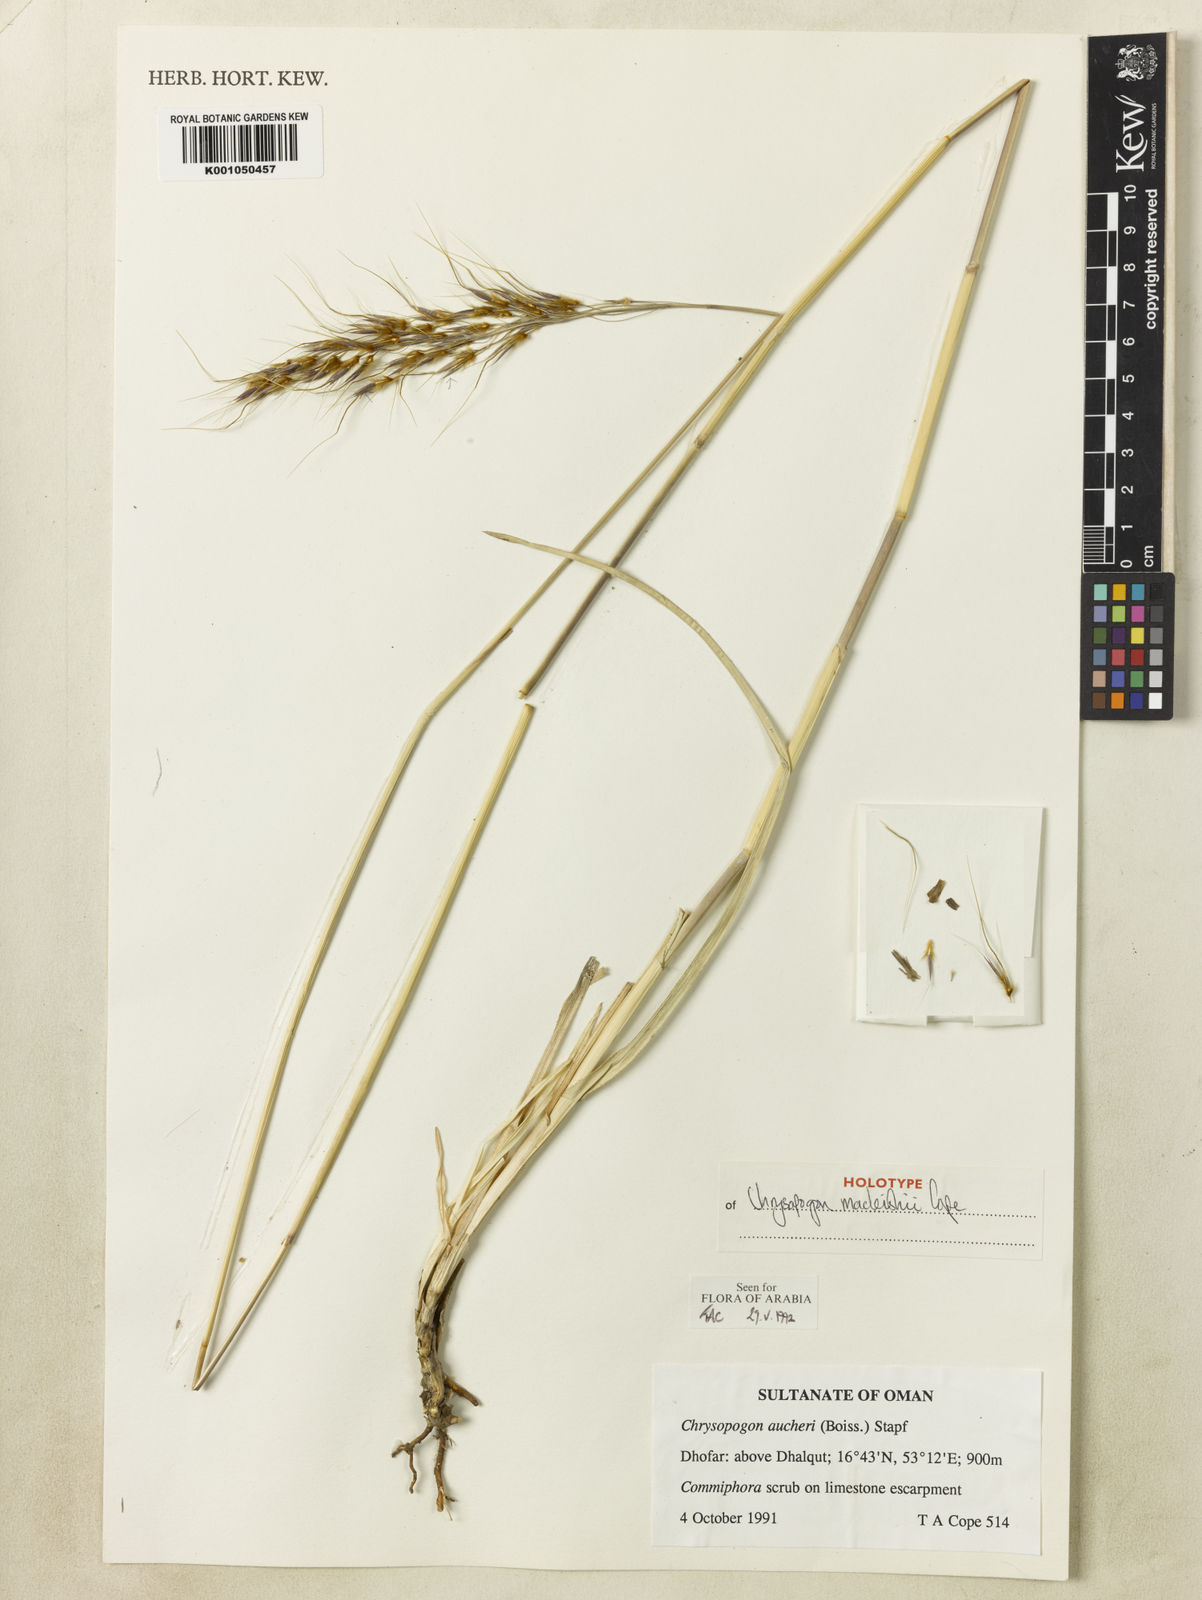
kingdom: Plantae
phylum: Tracheophyta
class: Liliopsida
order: Poales
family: Poaceae
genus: Chrysopogon
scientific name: Chrysopogon macleishii
